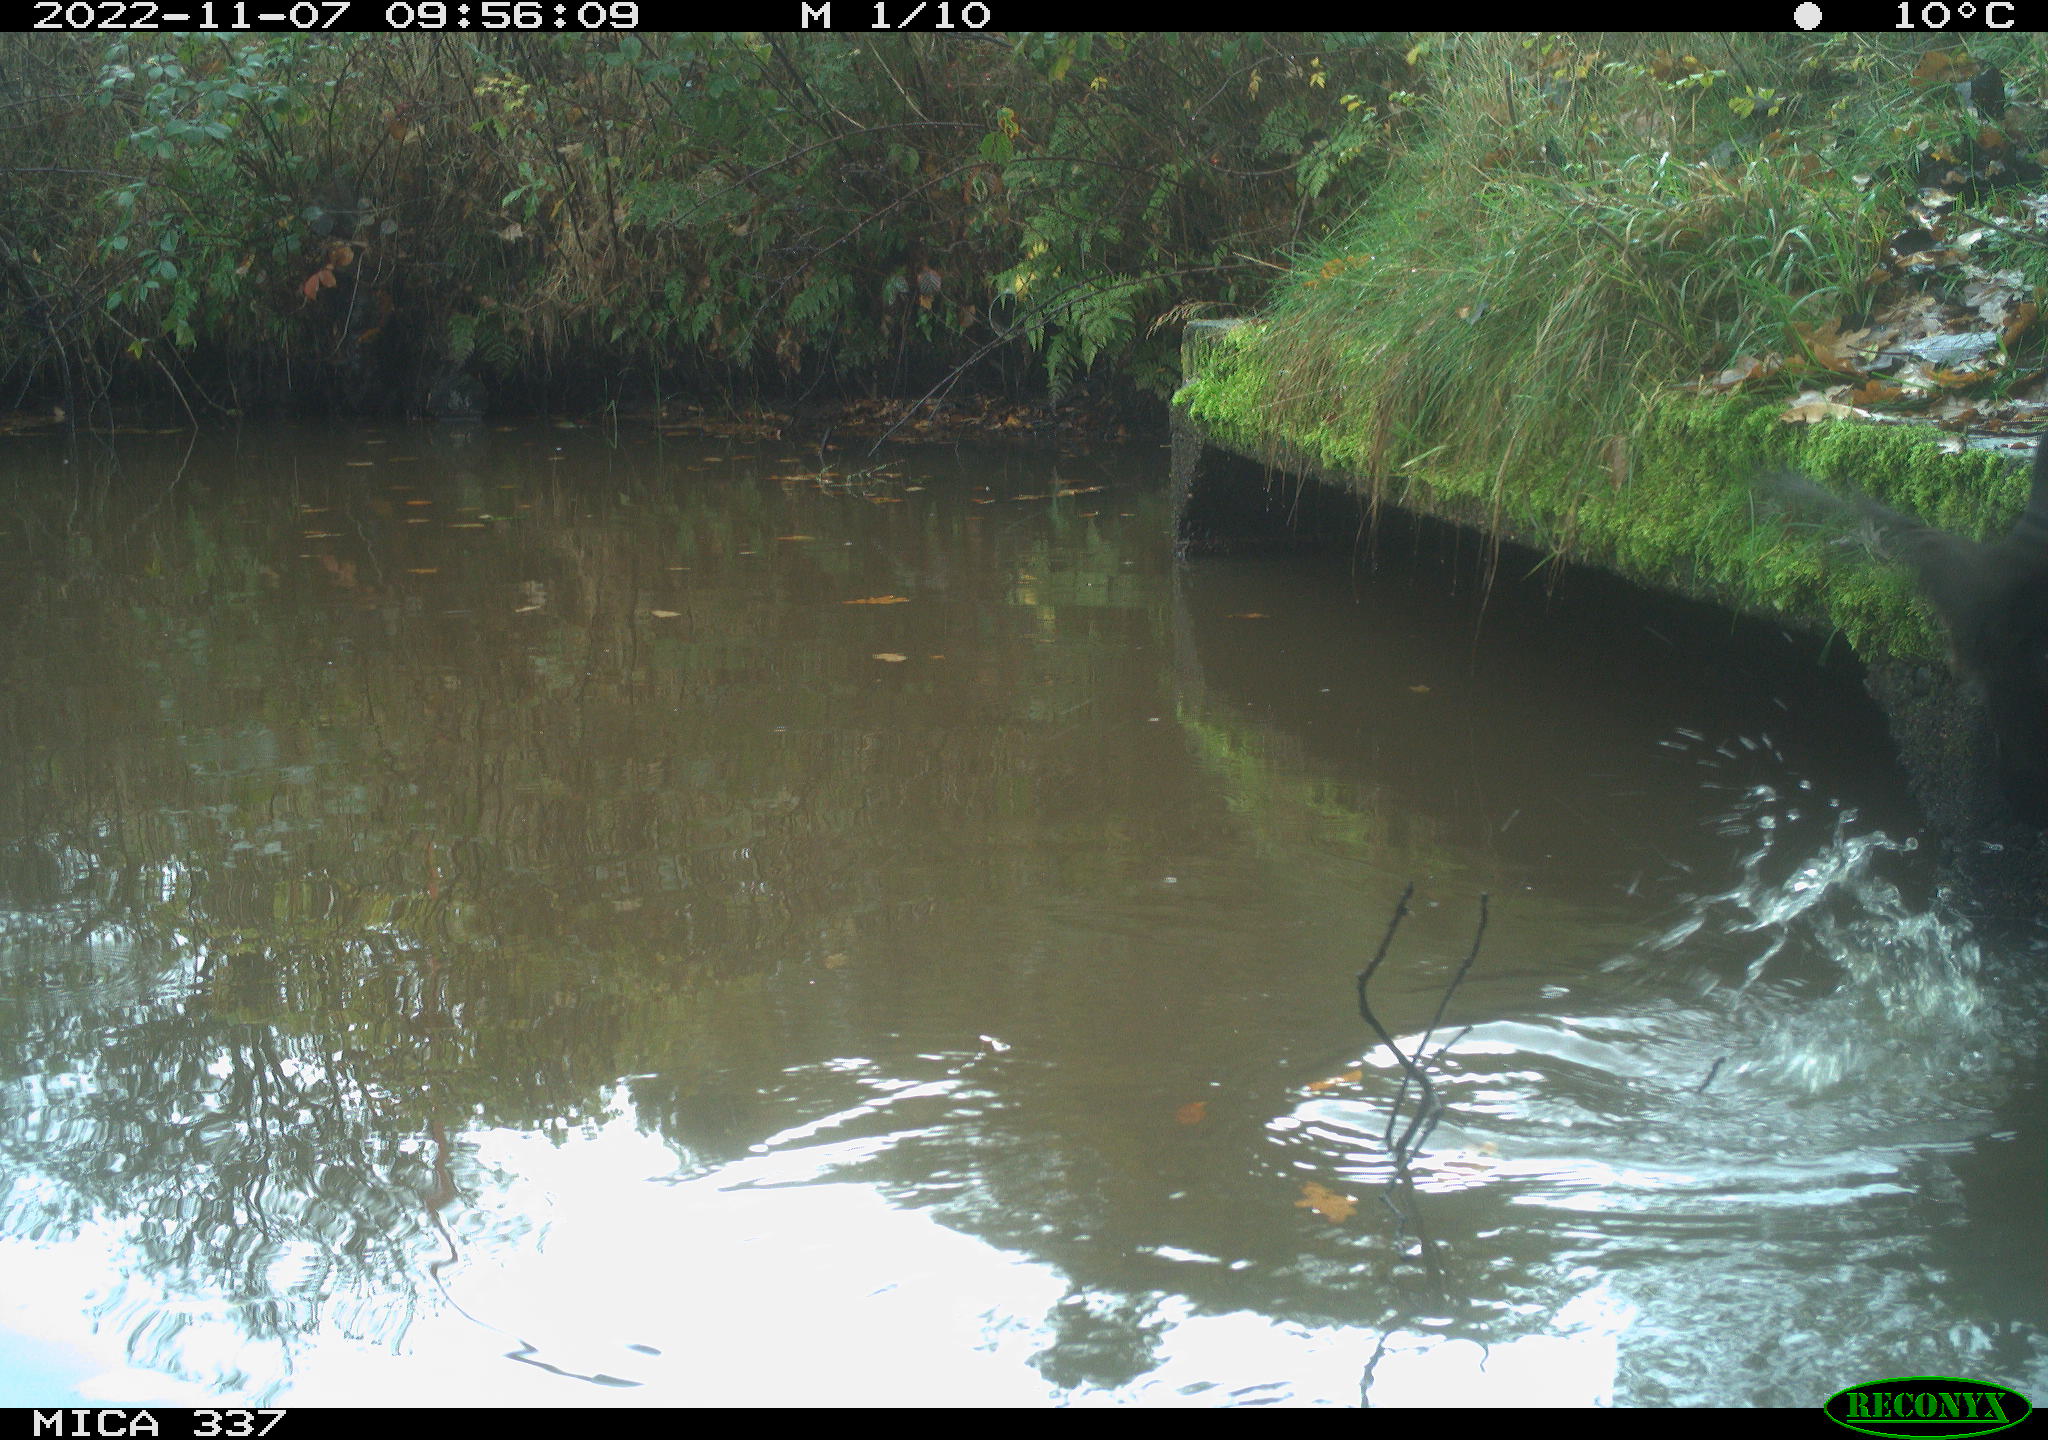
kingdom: Animalia
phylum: Chordata
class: Aves
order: Gruiformes
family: Rallidae
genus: Gallinula
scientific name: Gallinula chloropus
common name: Common moorhen
